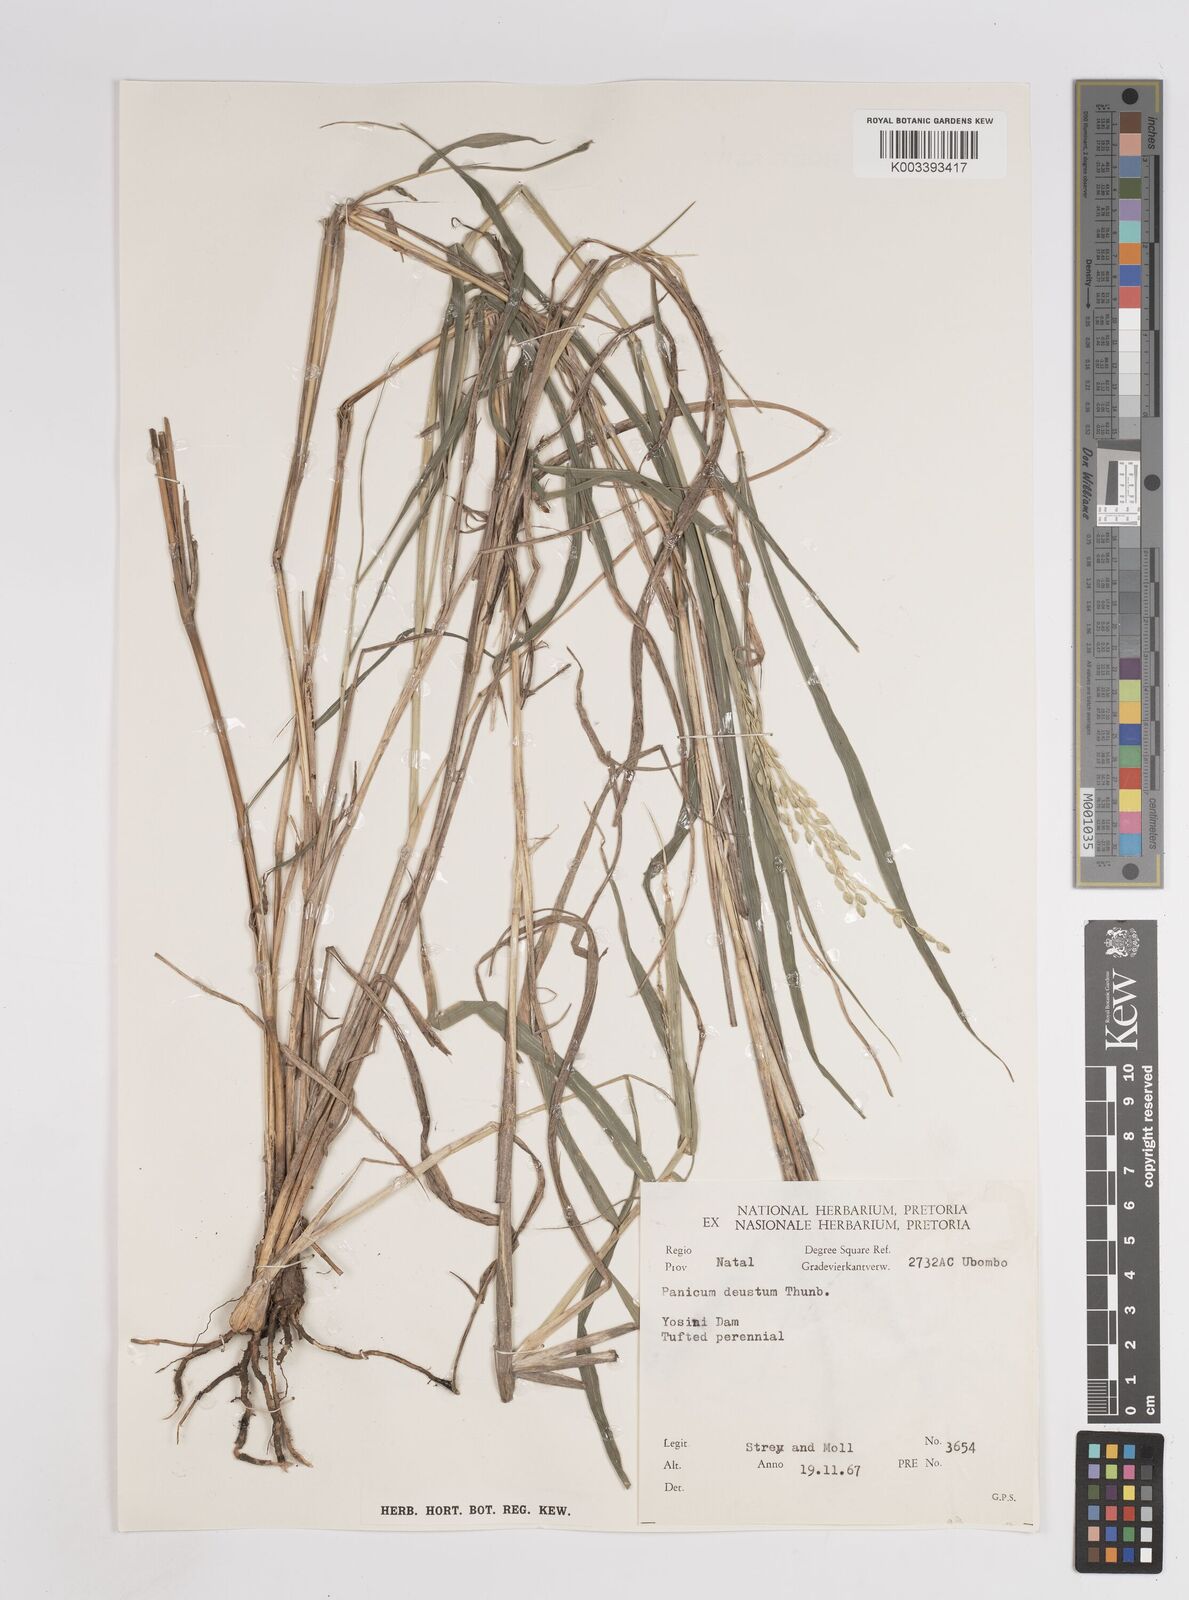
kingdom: Plantae
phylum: Tracheophyta
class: Liliopsida
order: Poales
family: Poaceae
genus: Panicum
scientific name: Panicum deustum
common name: Reed panicum
